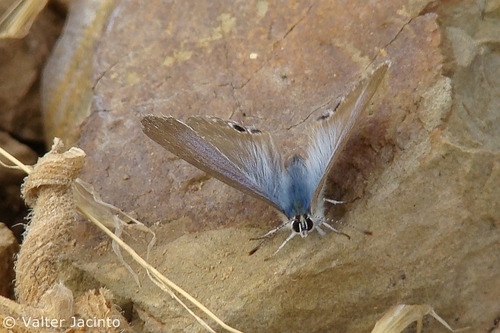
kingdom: Animalia
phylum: Arthropoda
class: Insecta
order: Lepidoptera
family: Lycaenidae
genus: Lampides
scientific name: Lampides boeticus
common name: Long-tailed blue
